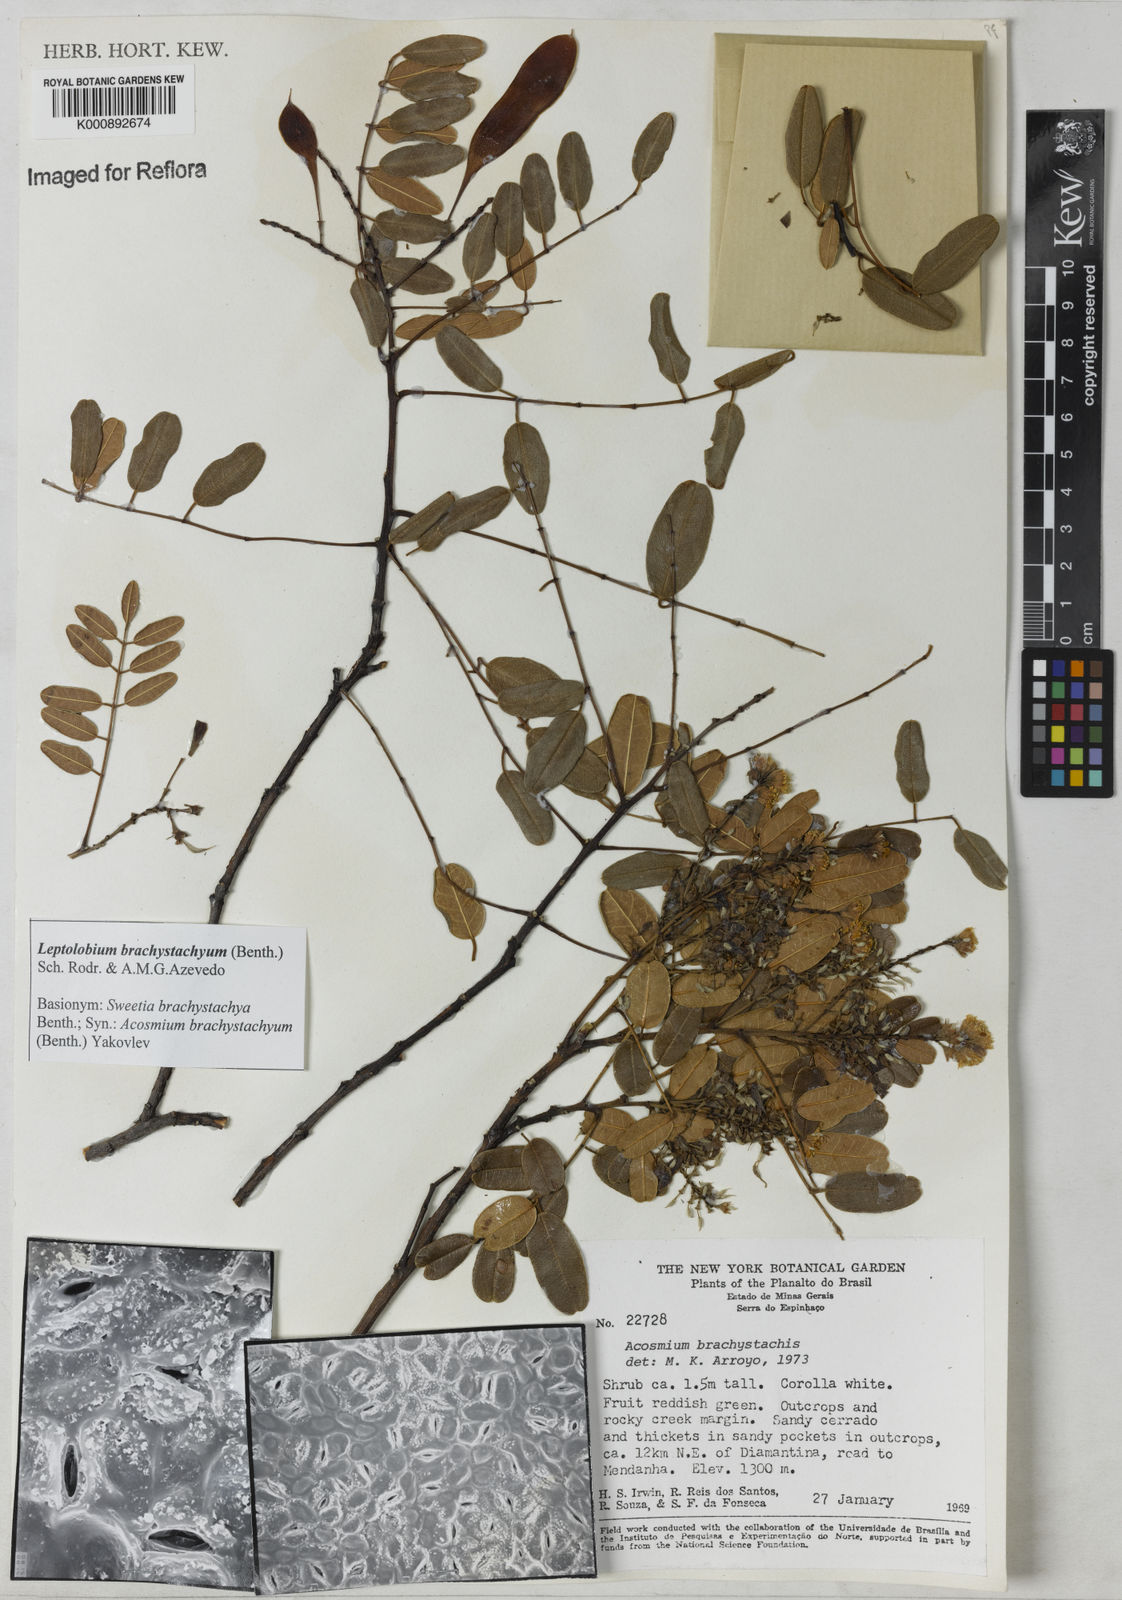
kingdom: Plantae
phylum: Tracheophyta
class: Magnoliopsida
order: Fabales
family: Fabaceae
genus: Leptolobium
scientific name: Leptolobium brachystachyum
